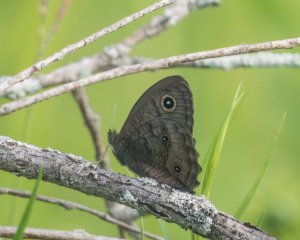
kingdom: Animalia
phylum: Arthropoda
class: Insecta
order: Lepidoptera
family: Nymphalidae
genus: Cercyonis
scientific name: Cercyonis pegala
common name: Common Wood-Nymph
